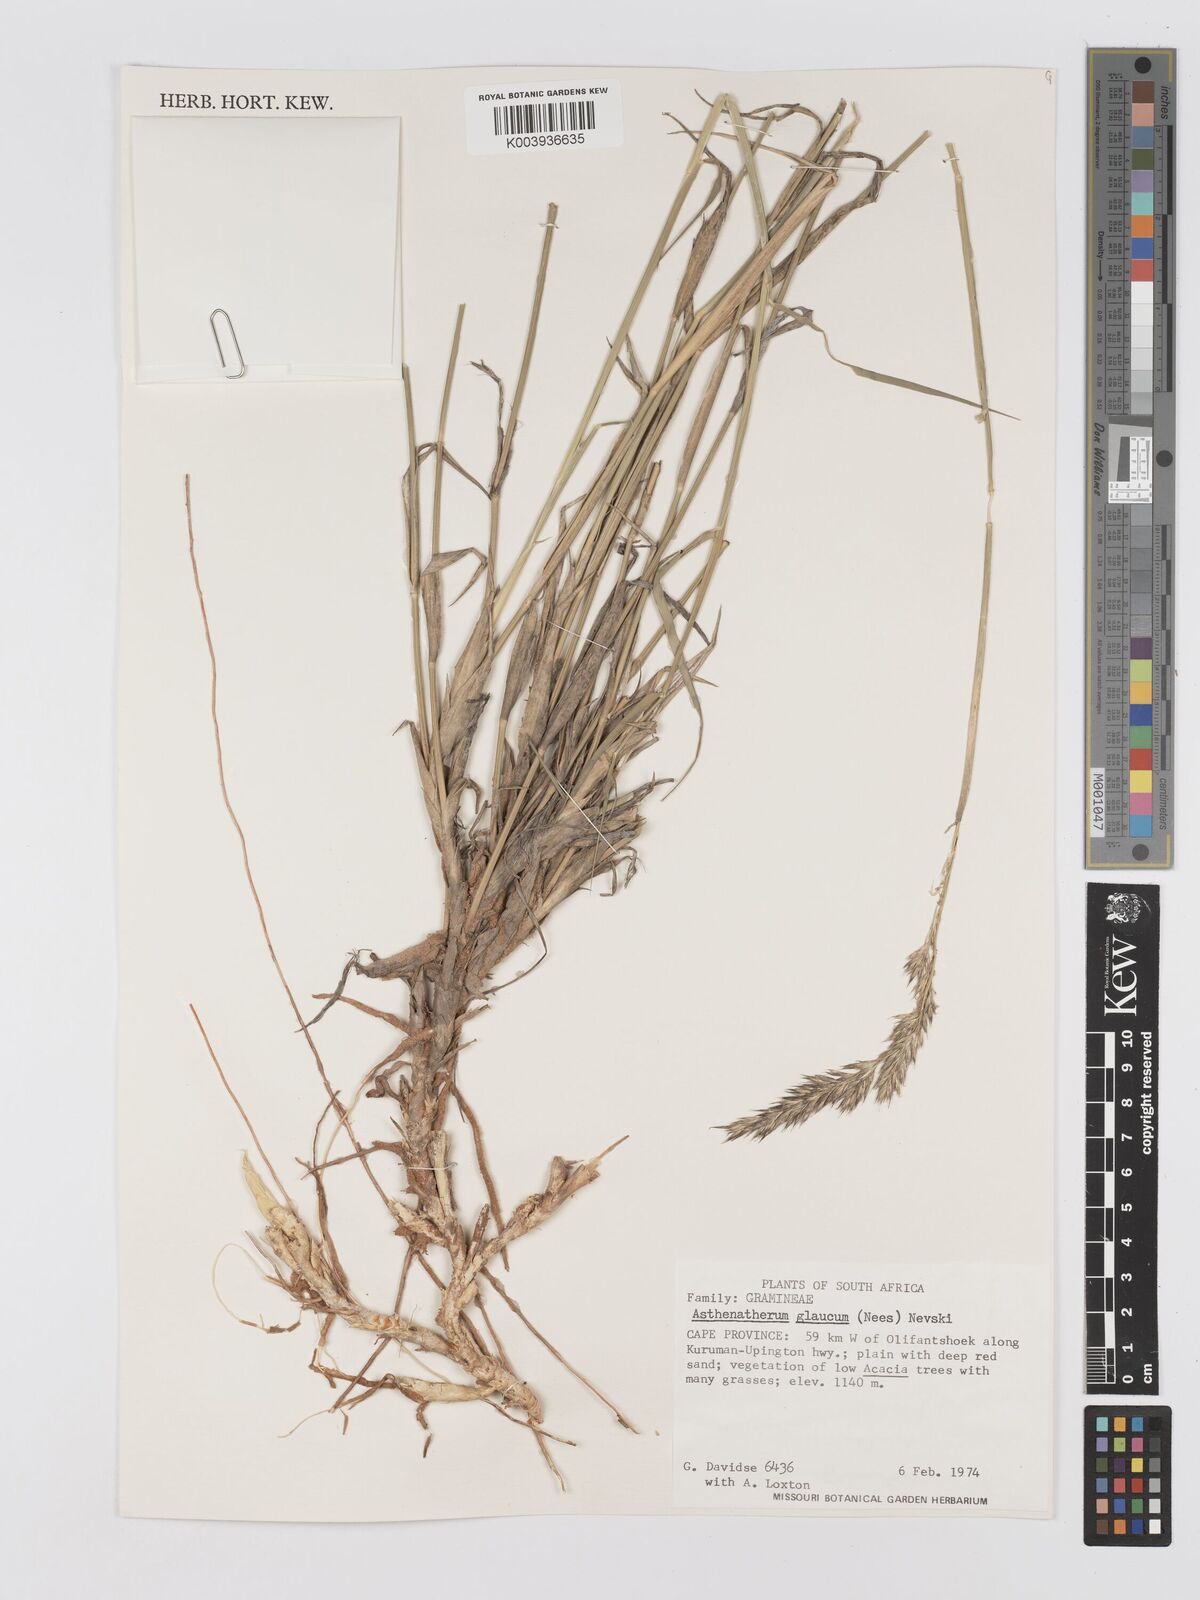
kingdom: Plantae
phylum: Tracheophyta
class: Liliopsida
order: Poales
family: Poaceae
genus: Centropodia
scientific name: Centropodia glauca
